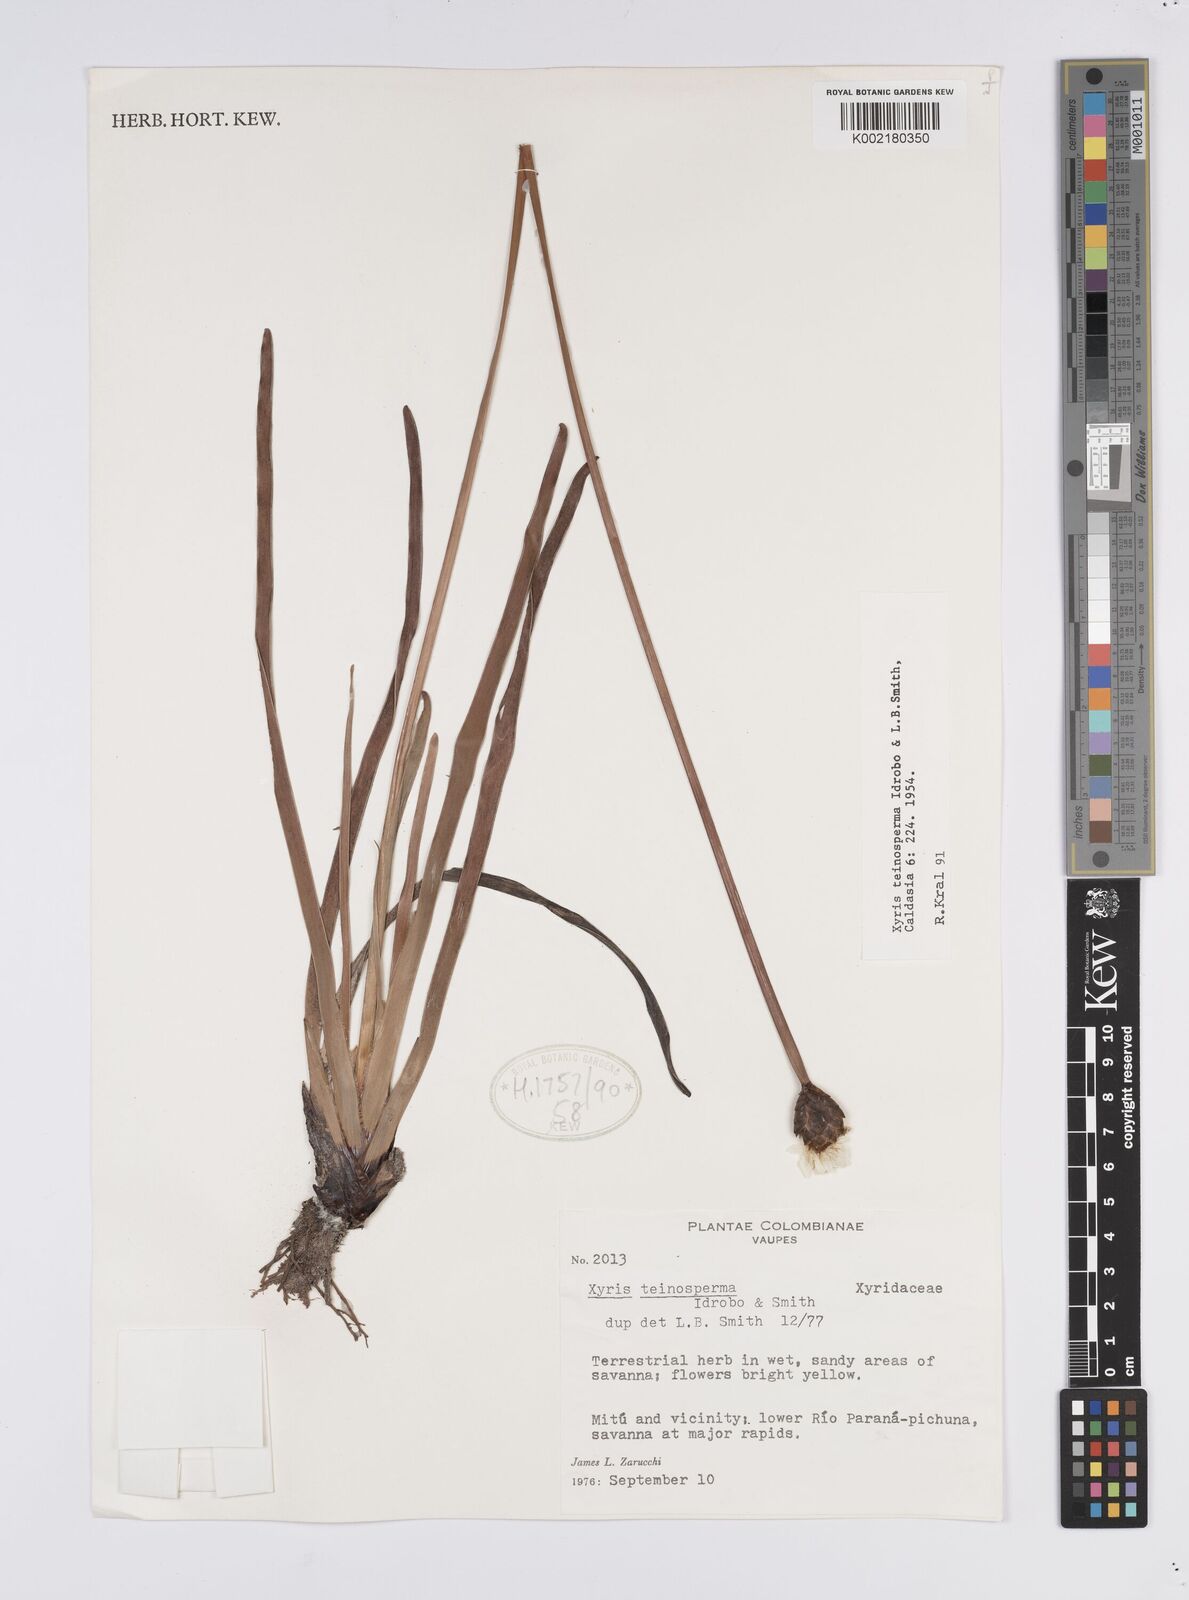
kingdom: Plantae
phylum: Tracheophyta
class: Liliopsida
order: Poales
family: Xyridaceae
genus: Xyris
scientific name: Xyris teinosperma
